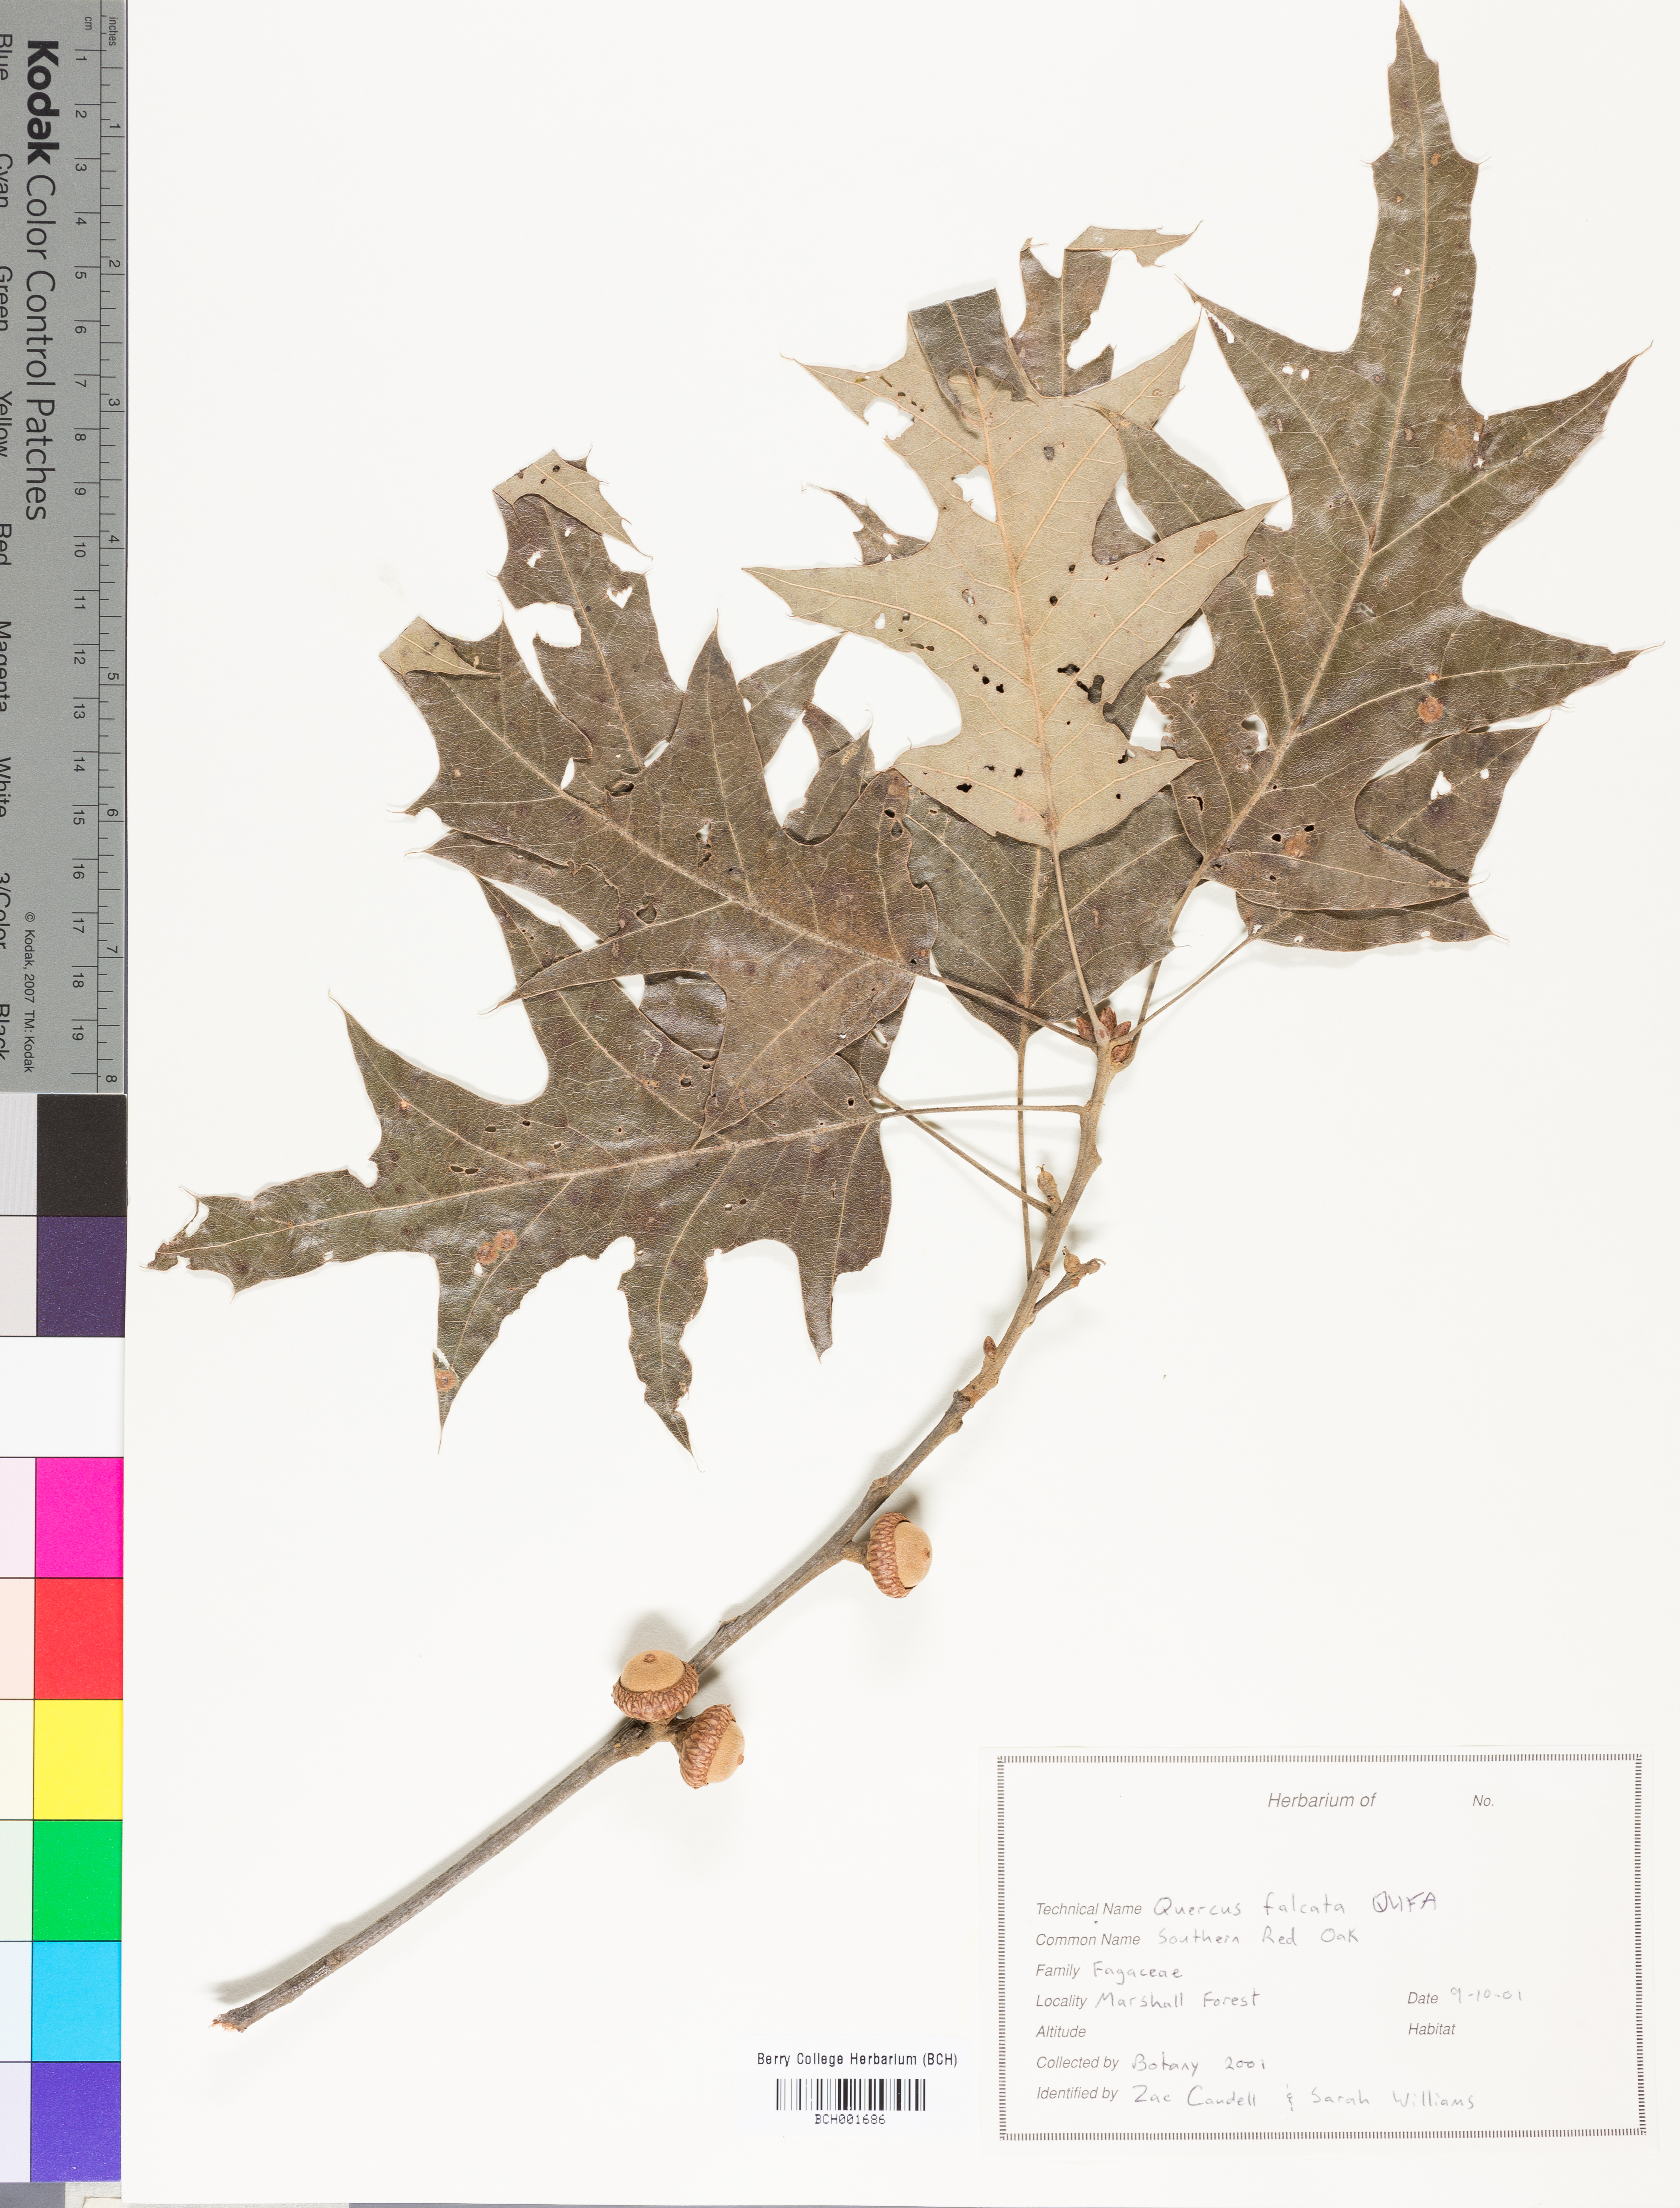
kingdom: Plantae
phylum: Tracheophyta
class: Magnoliopsida
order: Fagales
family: Fagaceae
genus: Quercus
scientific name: Quercus falcata
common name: Southern red oak
